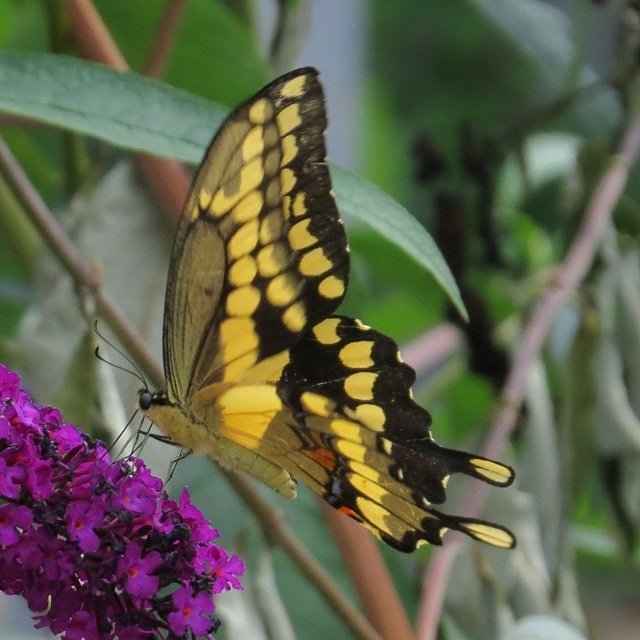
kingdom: Animalia
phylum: Arthropoda
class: Insecta
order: Lepidoptera
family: Papilionidae
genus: Papilio
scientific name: Papilio cresphontes
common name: Eastern Giant Swallowtail
